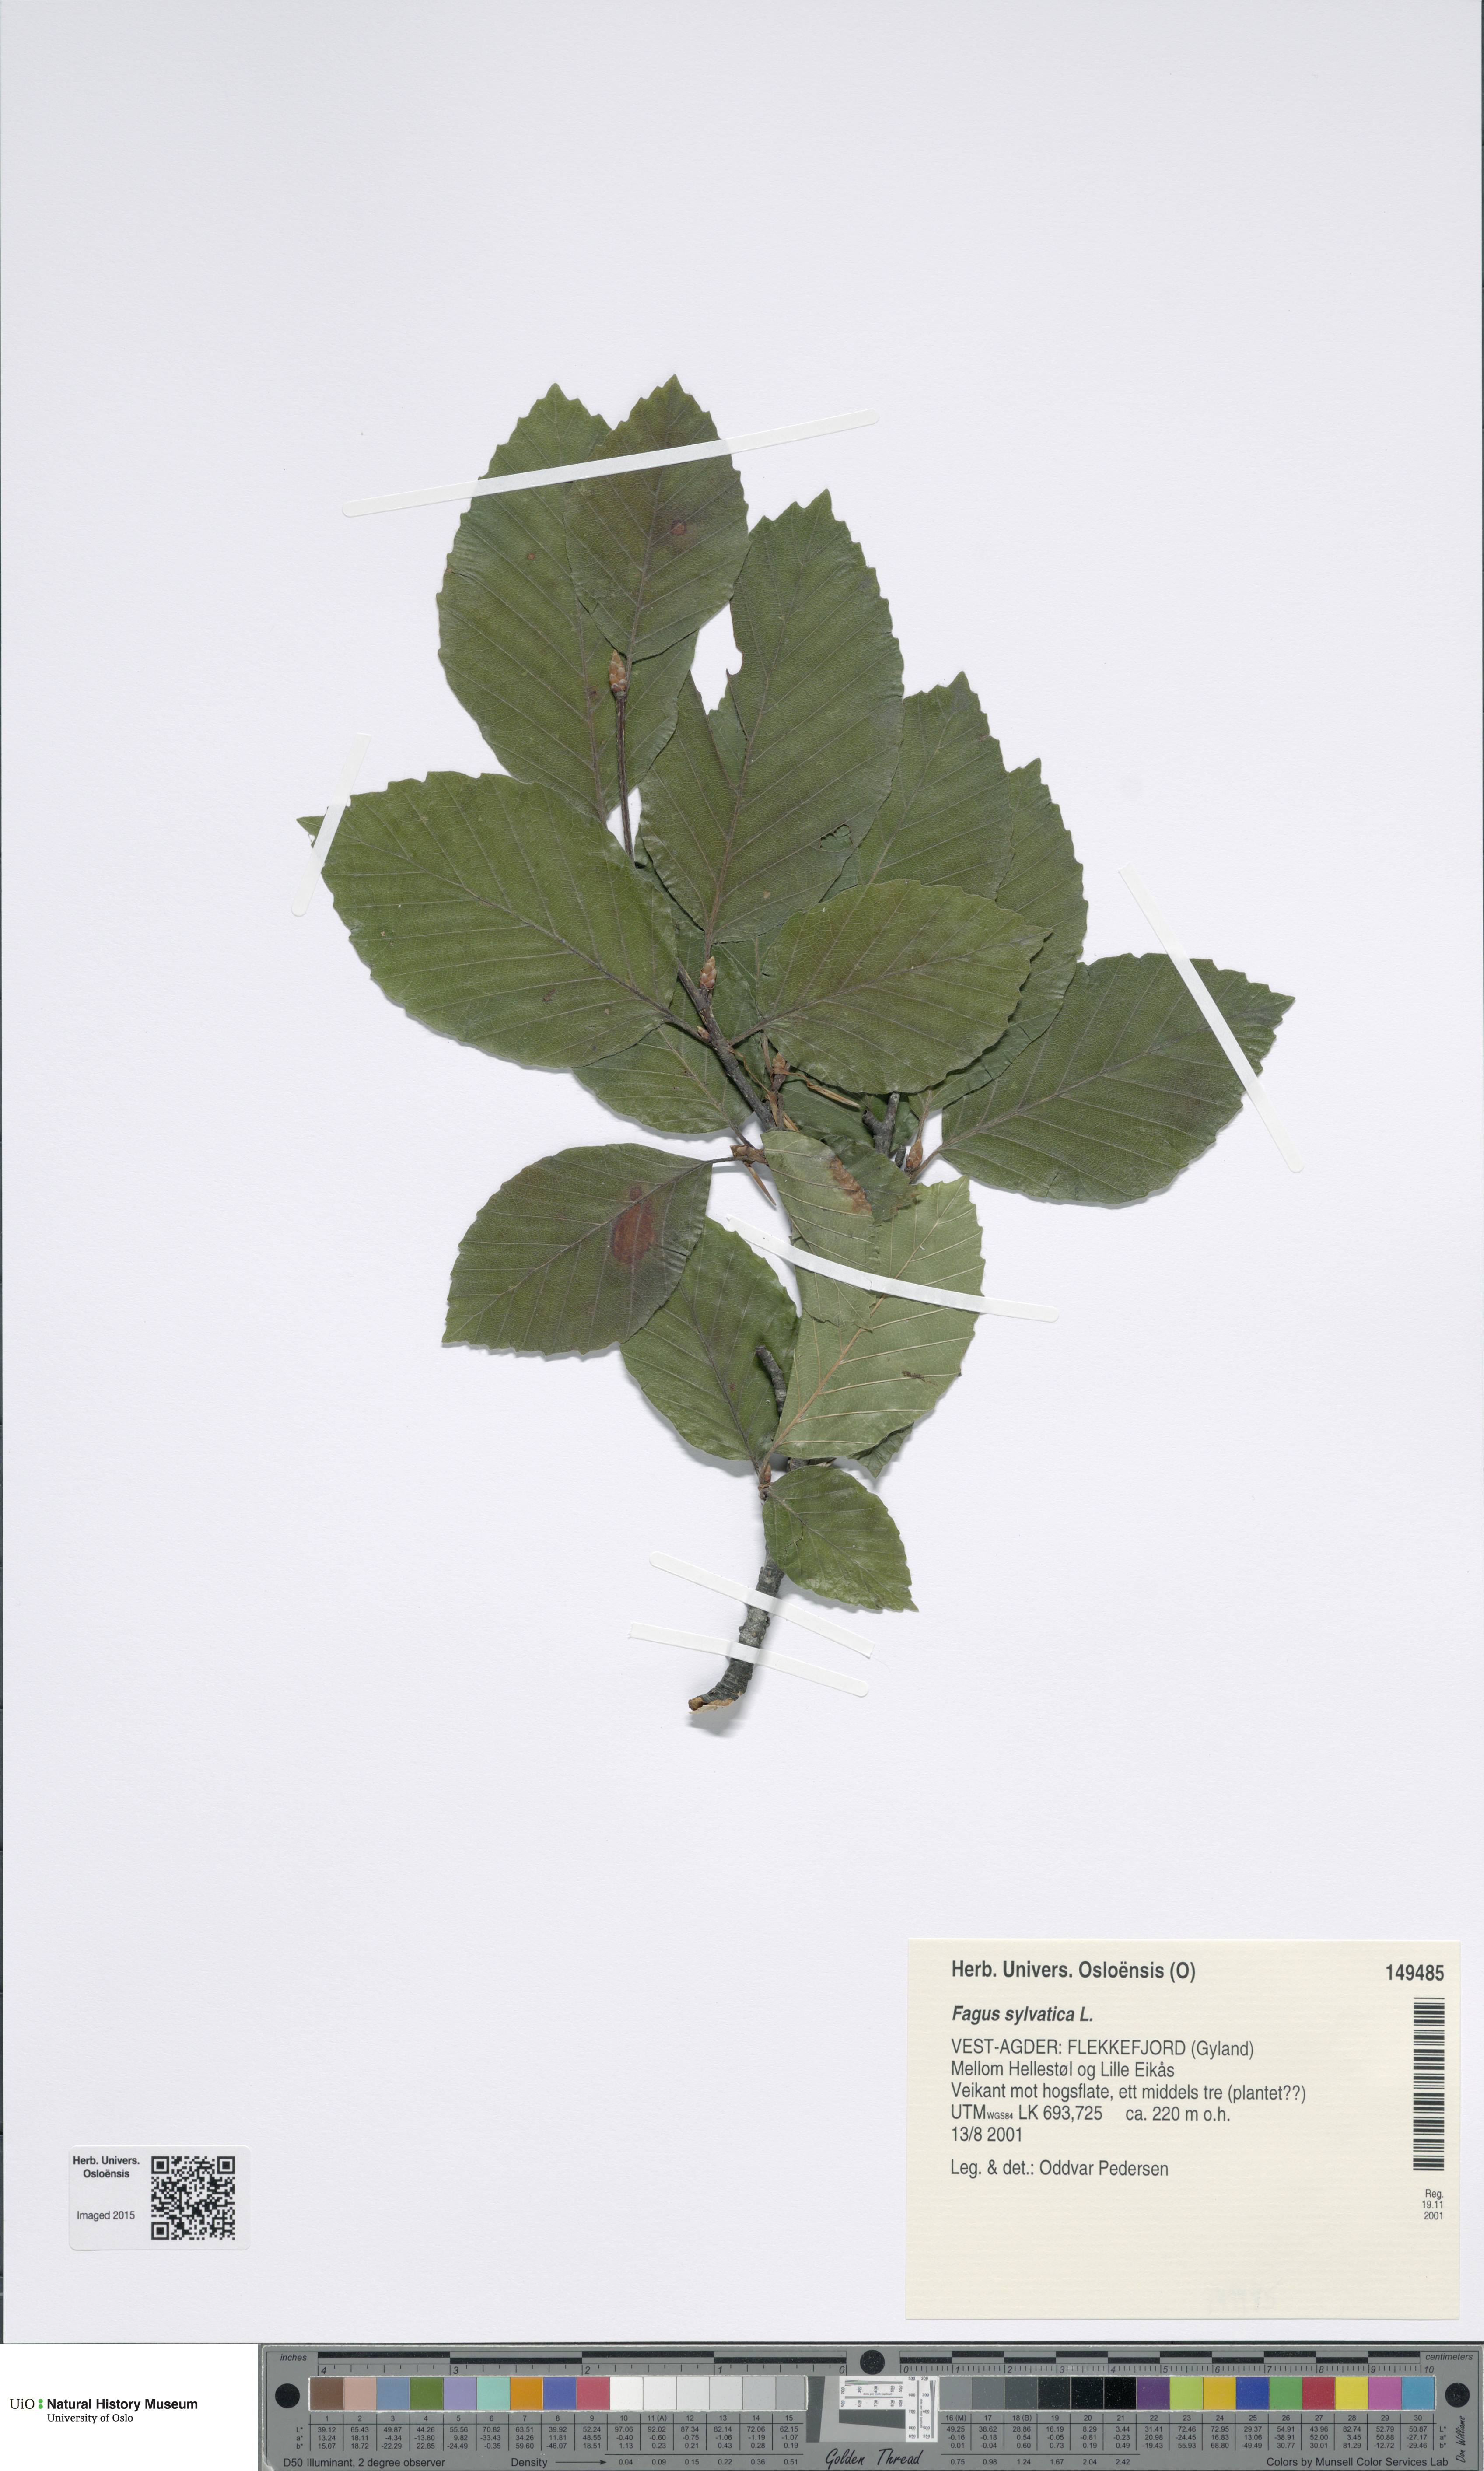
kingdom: Plantae
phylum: Tracheophyta
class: Magnoliopsida
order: Fagales
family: Fagaceae
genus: Fagus
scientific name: Fagus sylvatica
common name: Beech
